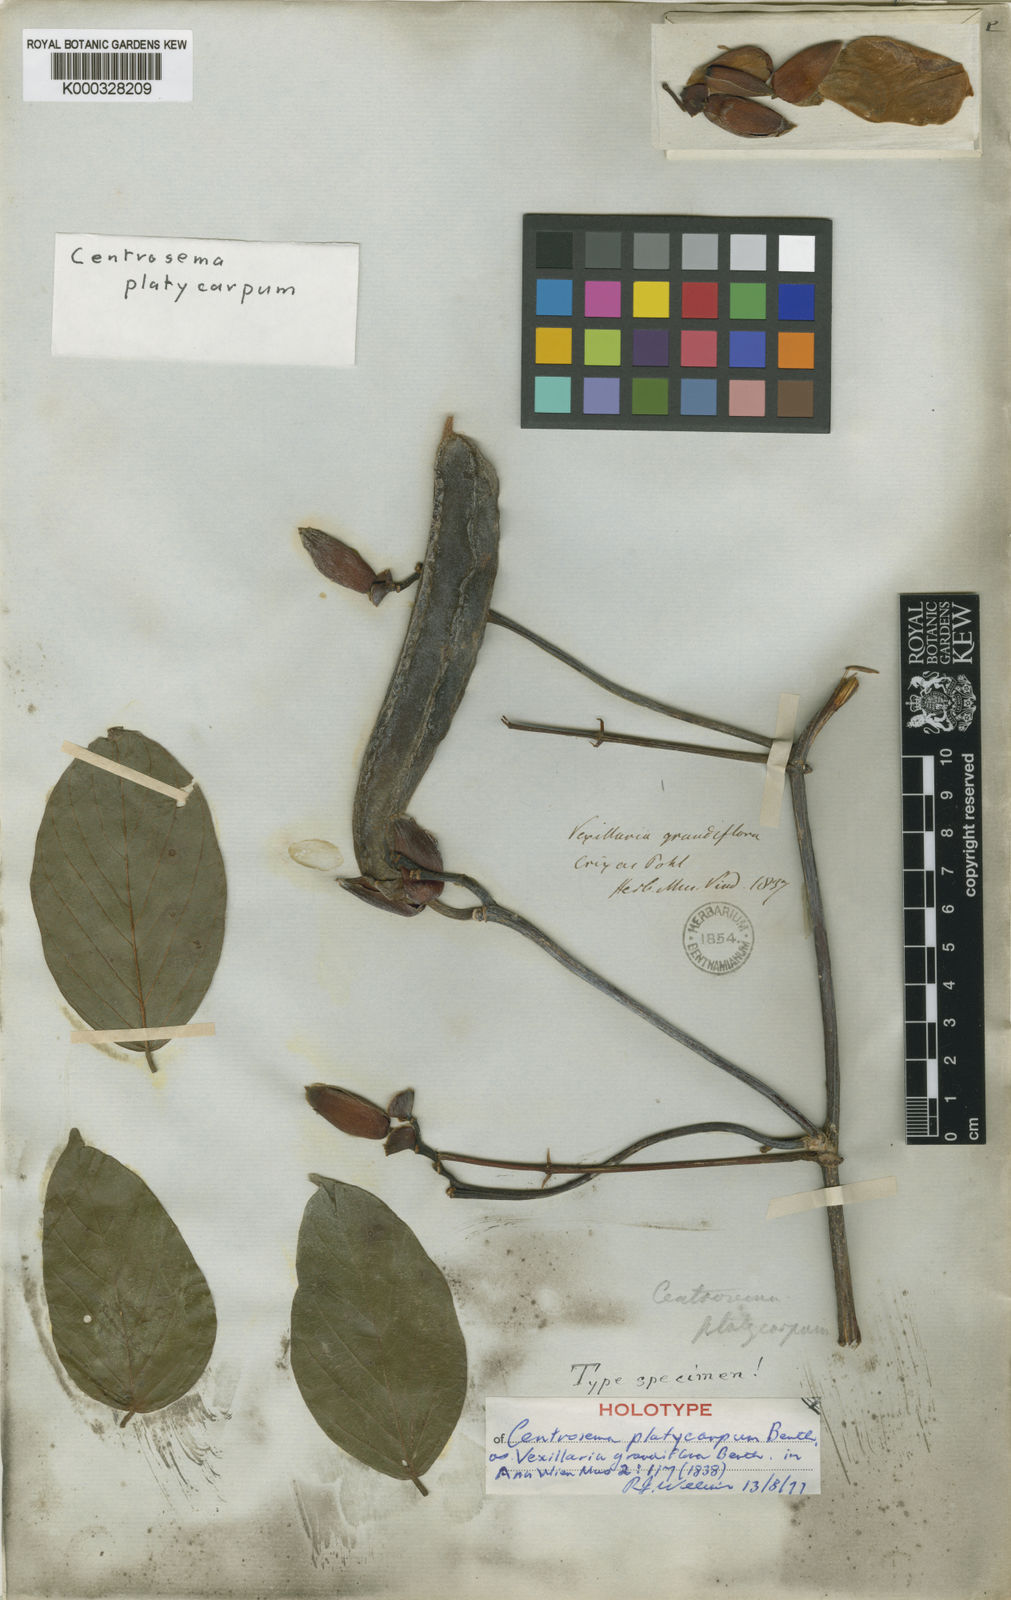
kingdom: Plantae
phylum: Tracheophyta
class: Magnoliopsida
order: Fabales
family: Fabaceae
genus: Centrosema
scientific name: Centrosema platycarpum
